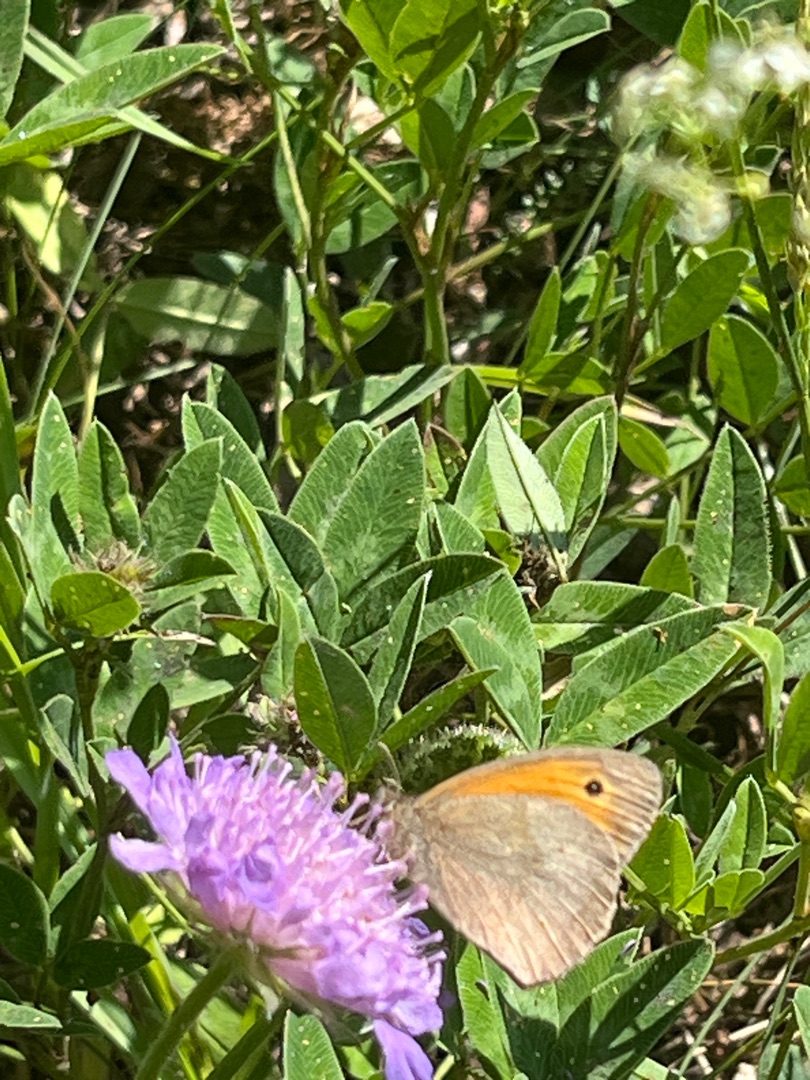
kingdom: Animalia
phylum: Arthropoda
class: Insecta
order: Lepidoptera
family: Nymphalidae
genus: Maniola
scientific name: Maniola jurtina
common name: Græsrandøje
